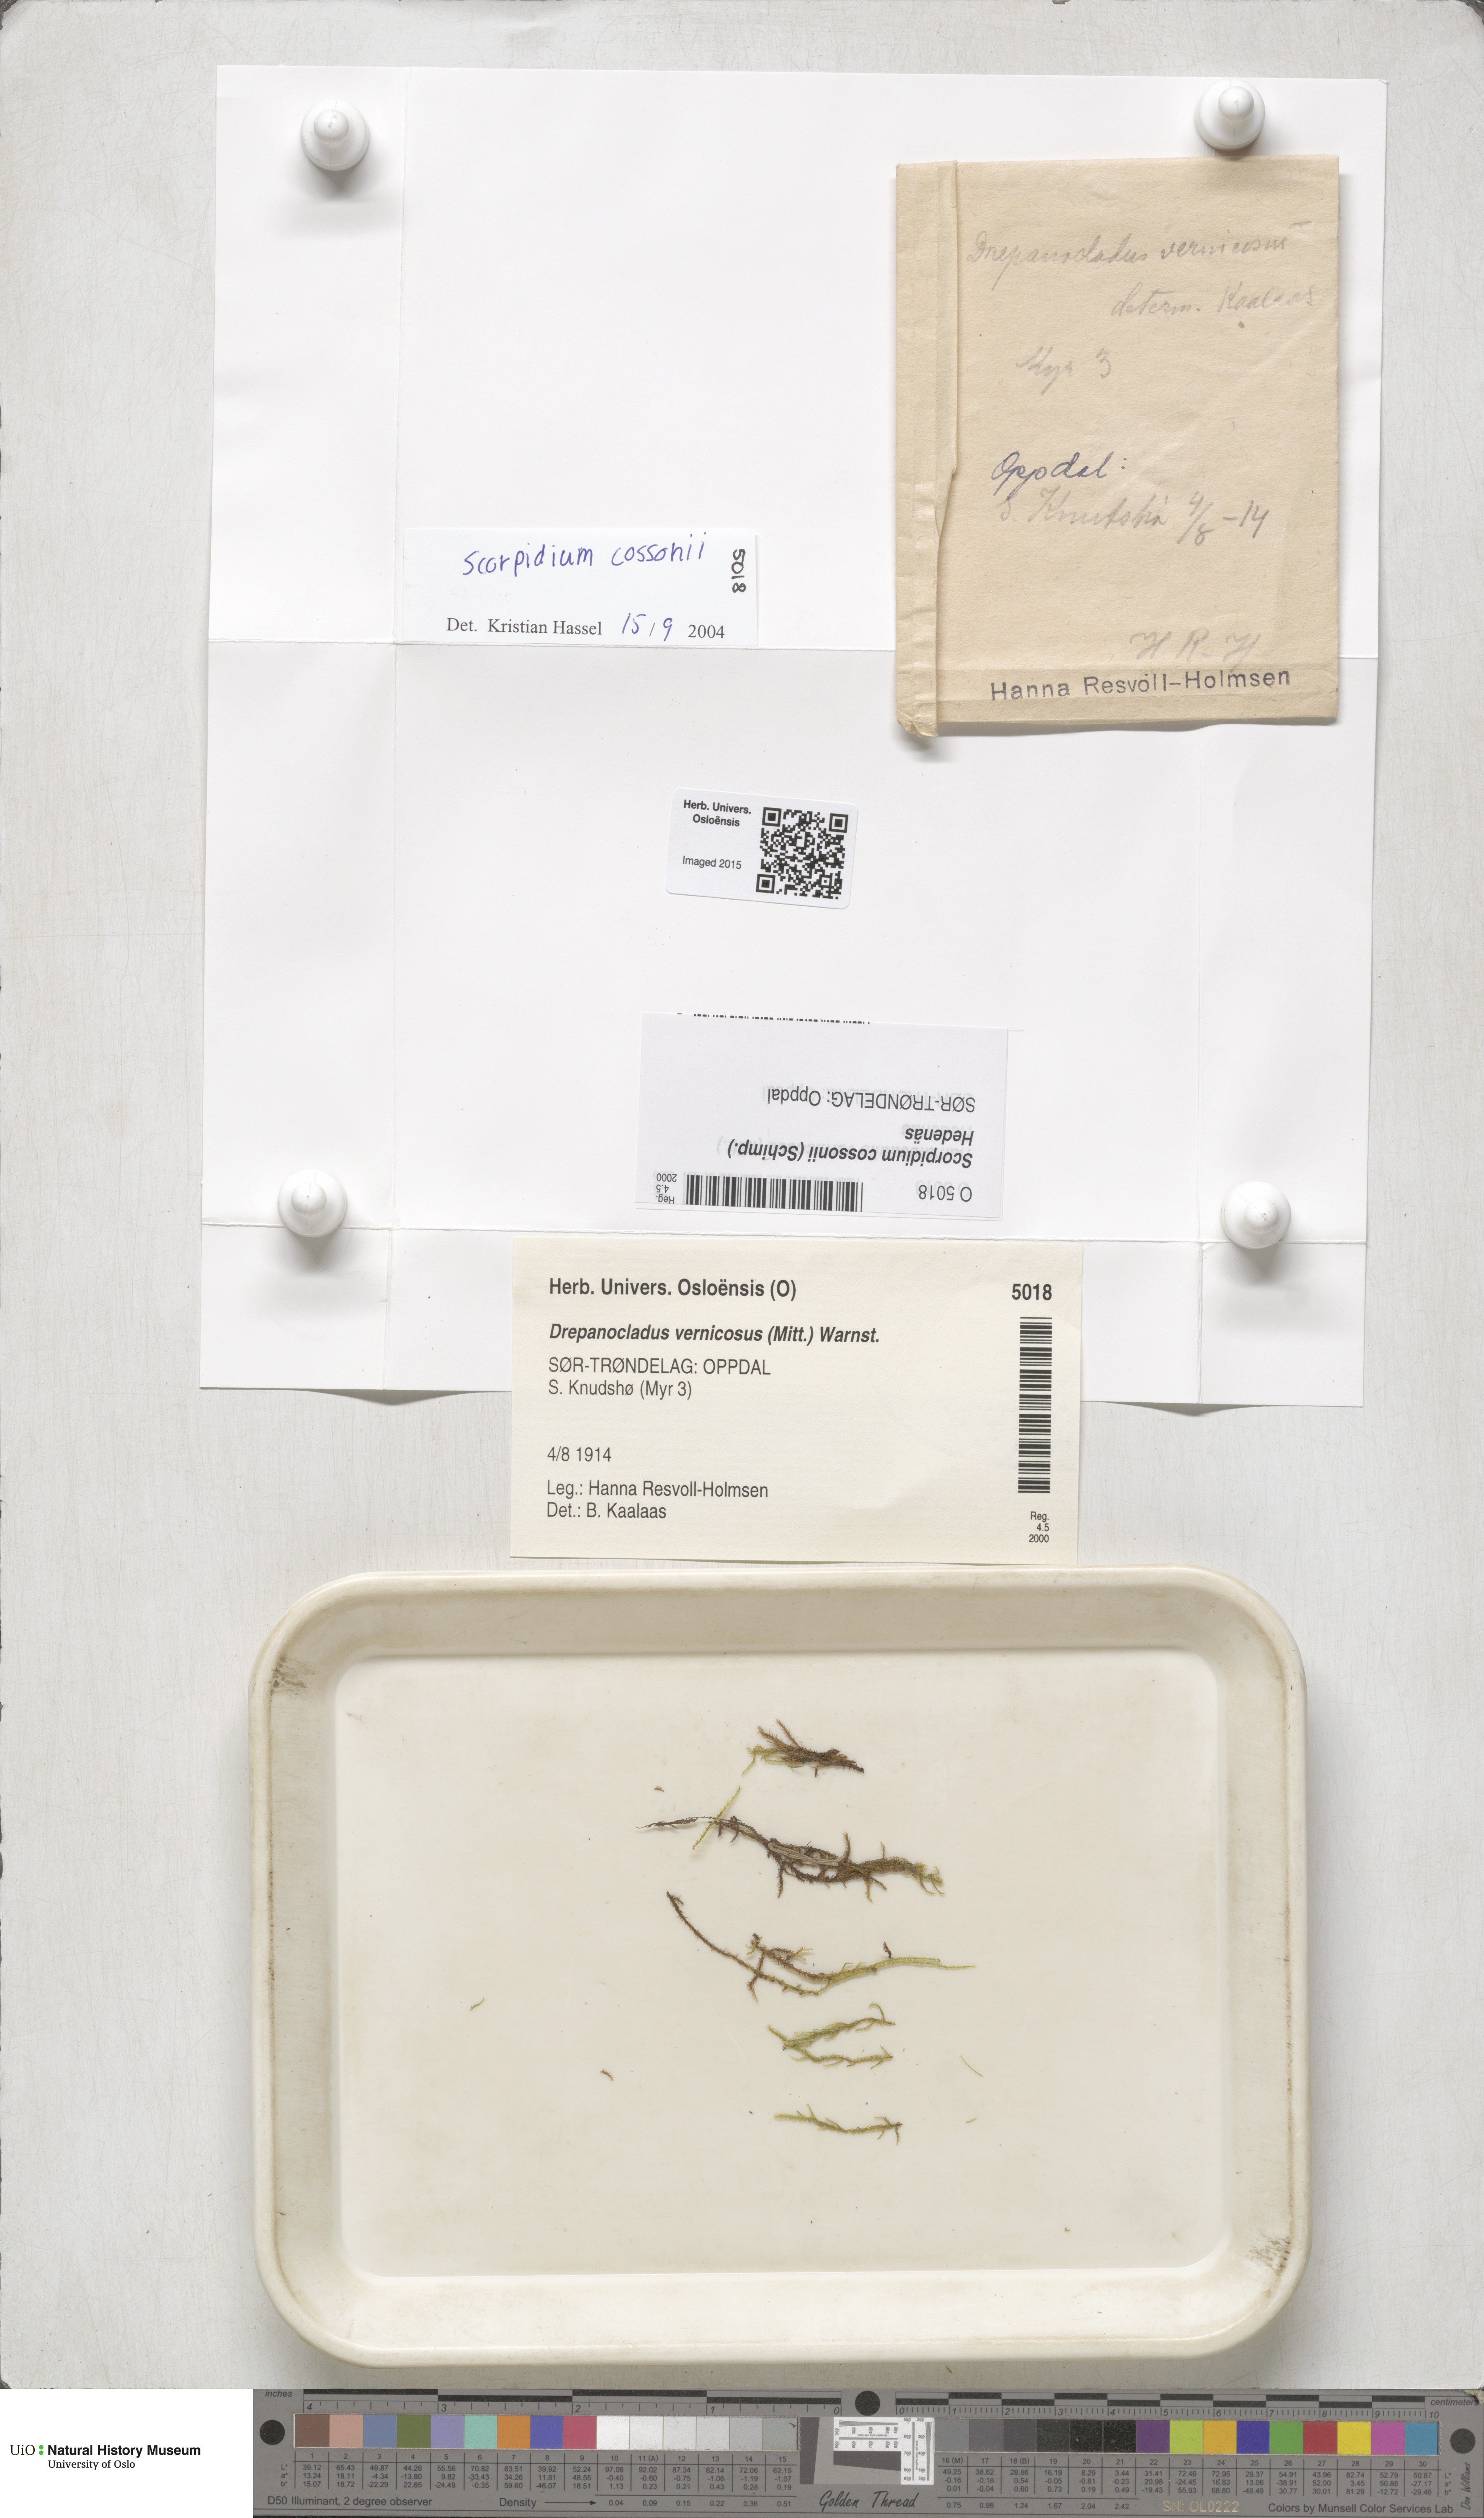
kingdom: Plantae
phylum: Bryophyta
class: Bryopsida
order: Hypnales
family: Scorpidiaceae
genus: Scorpidium
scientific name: Scorpidium cossonii
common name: Cosson's hook moss
